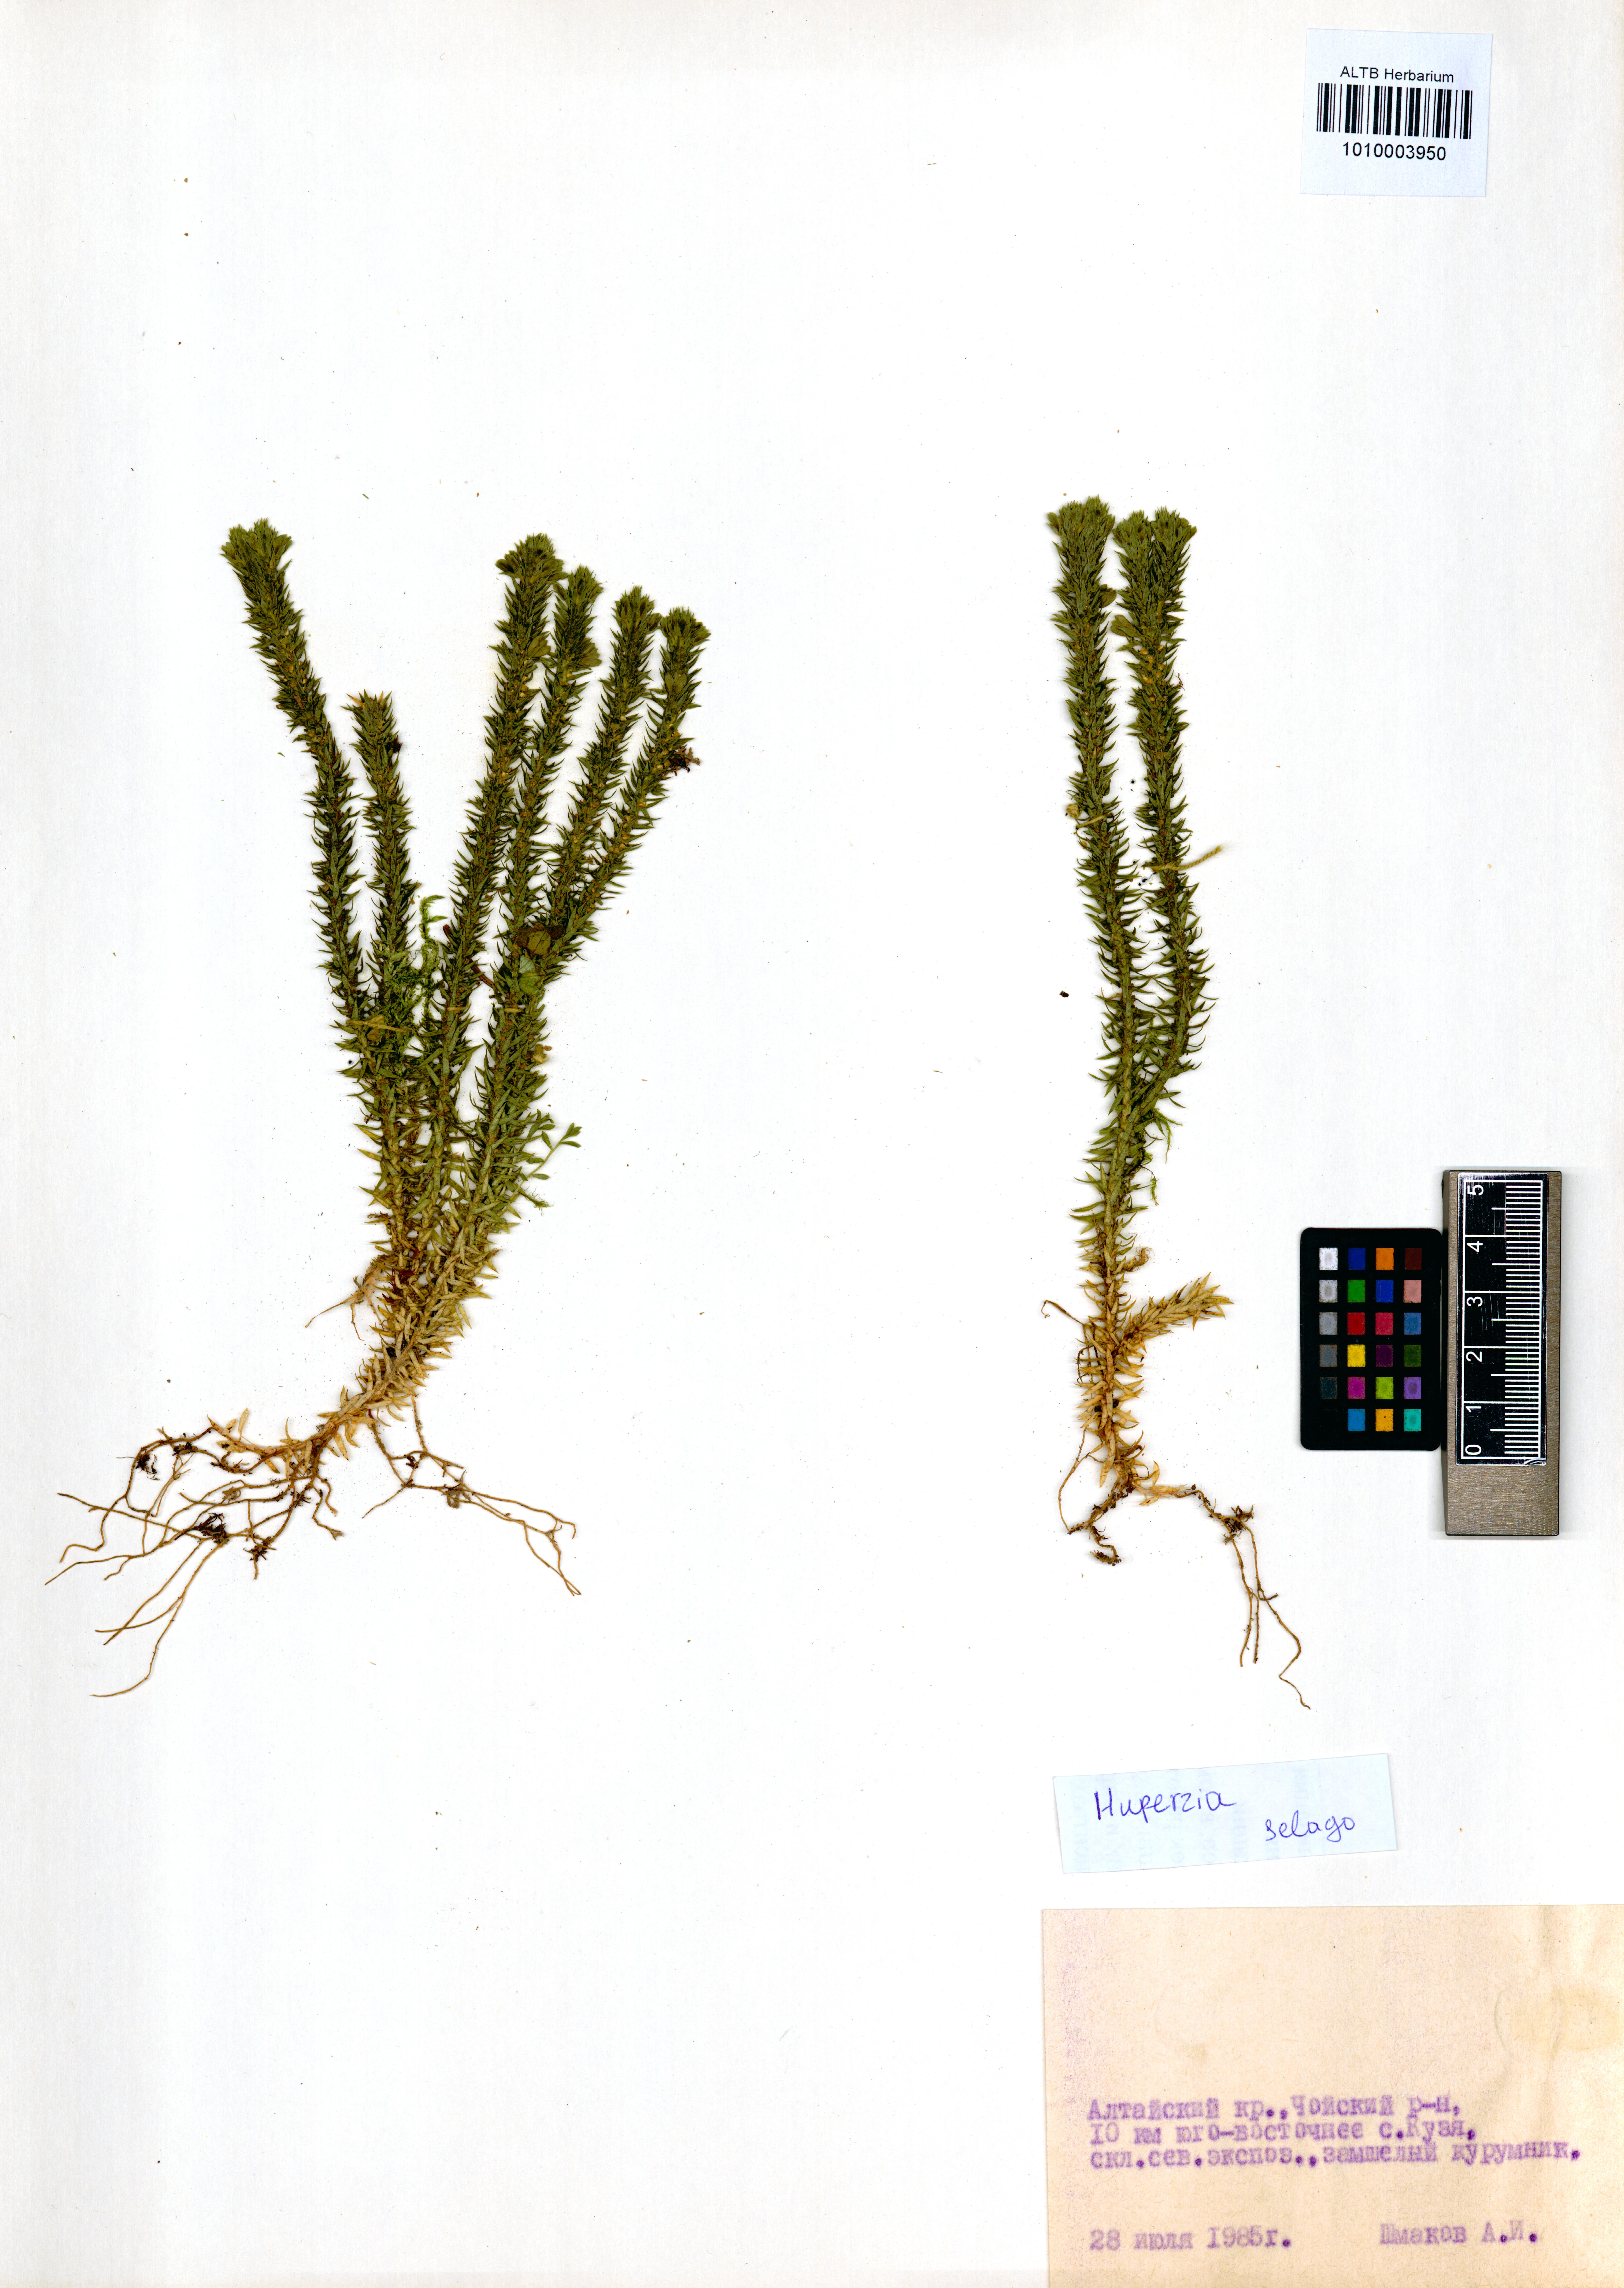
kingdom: Plantae
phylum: Tracheophyta
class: Lycopodiopsida
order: Lycopodiales
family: Lycopodiaceae
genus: Huperzia
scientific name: Huperzia selago
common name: Northern firmoss
